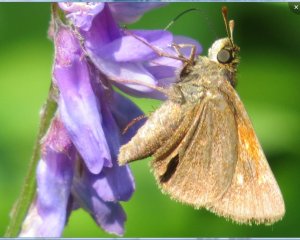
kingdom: Animalia
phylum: Arthropoda
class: Insecta
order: Lepidoptera
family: Hesperiidae
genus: Polites
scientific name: Polites themistocles
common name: Tawny-edged Skipper
